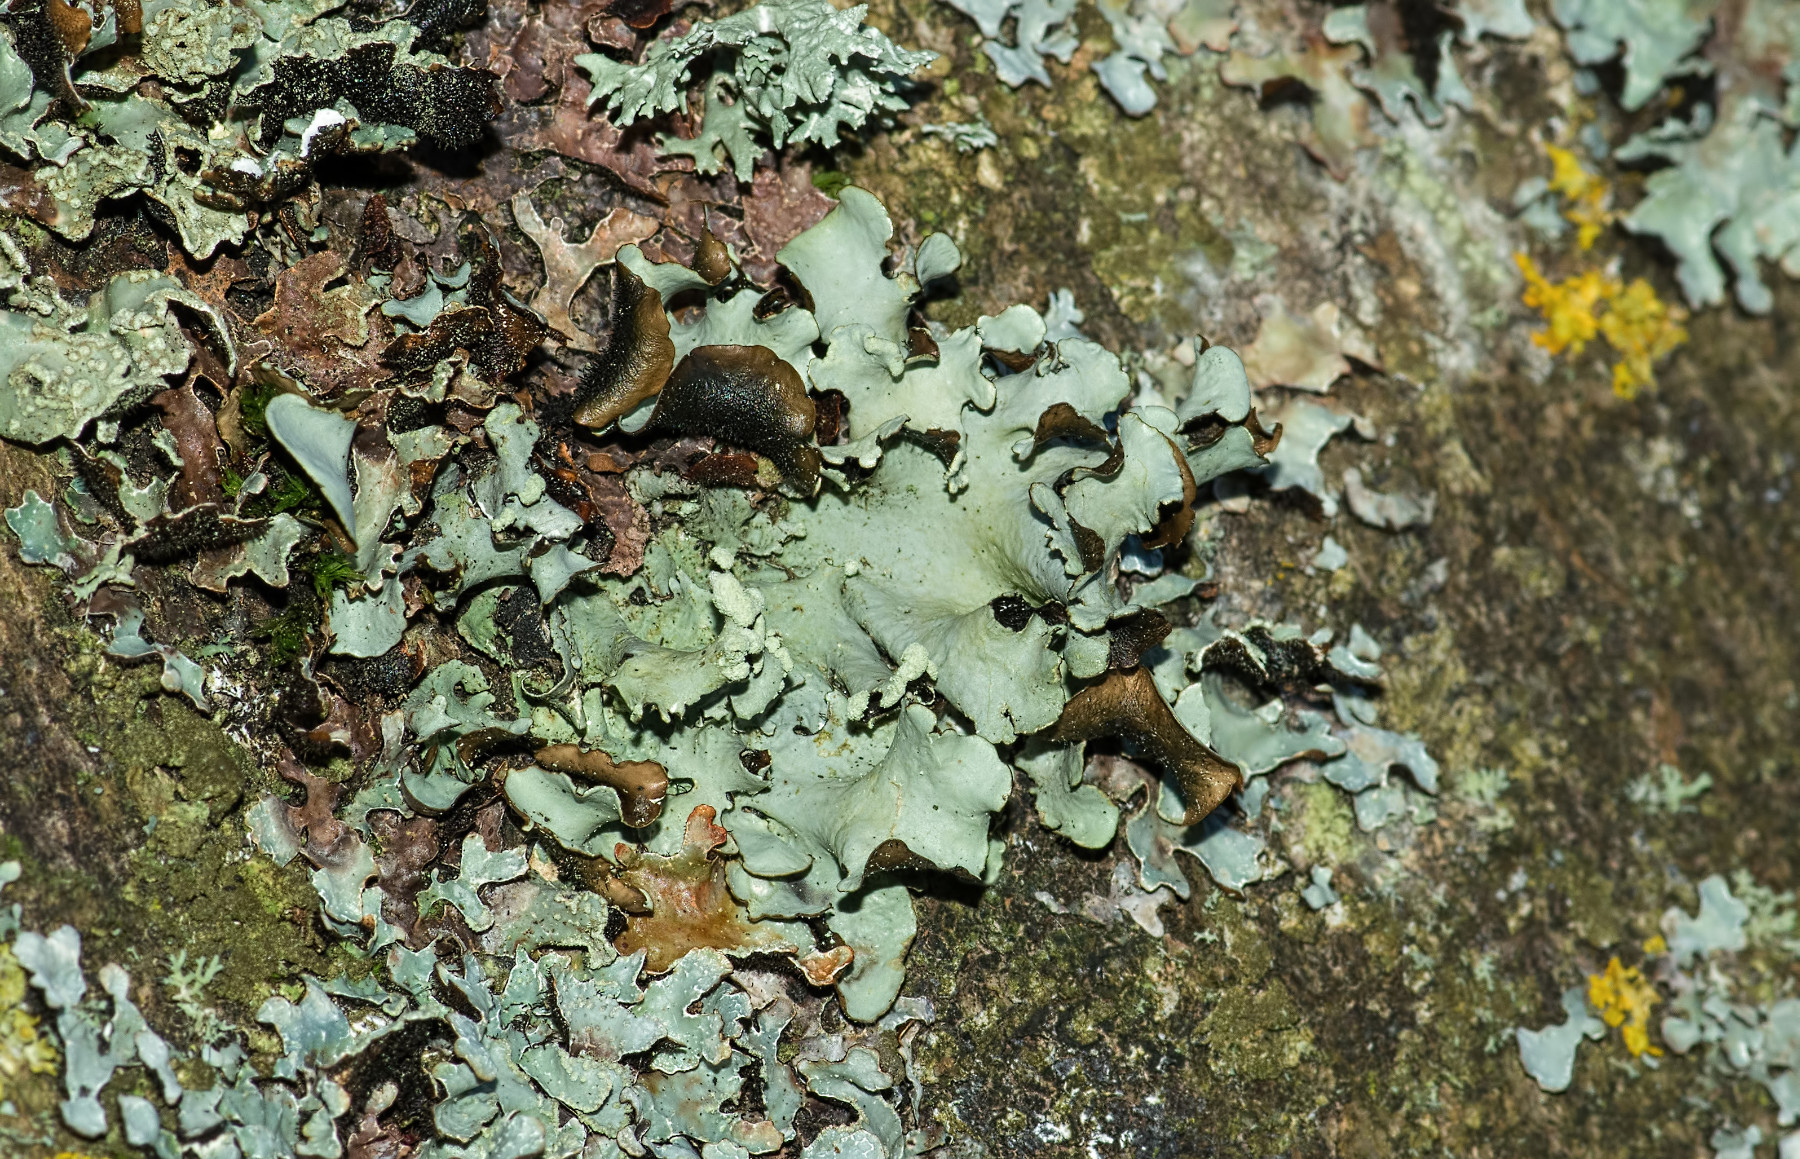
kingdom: Fungi
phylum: Ascomycota
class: Lecanoromycetes
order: Lecanorales
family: Parmeliaceae
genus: Parmotrema
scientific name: Parmotrema perlatum
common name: trådet skållav
